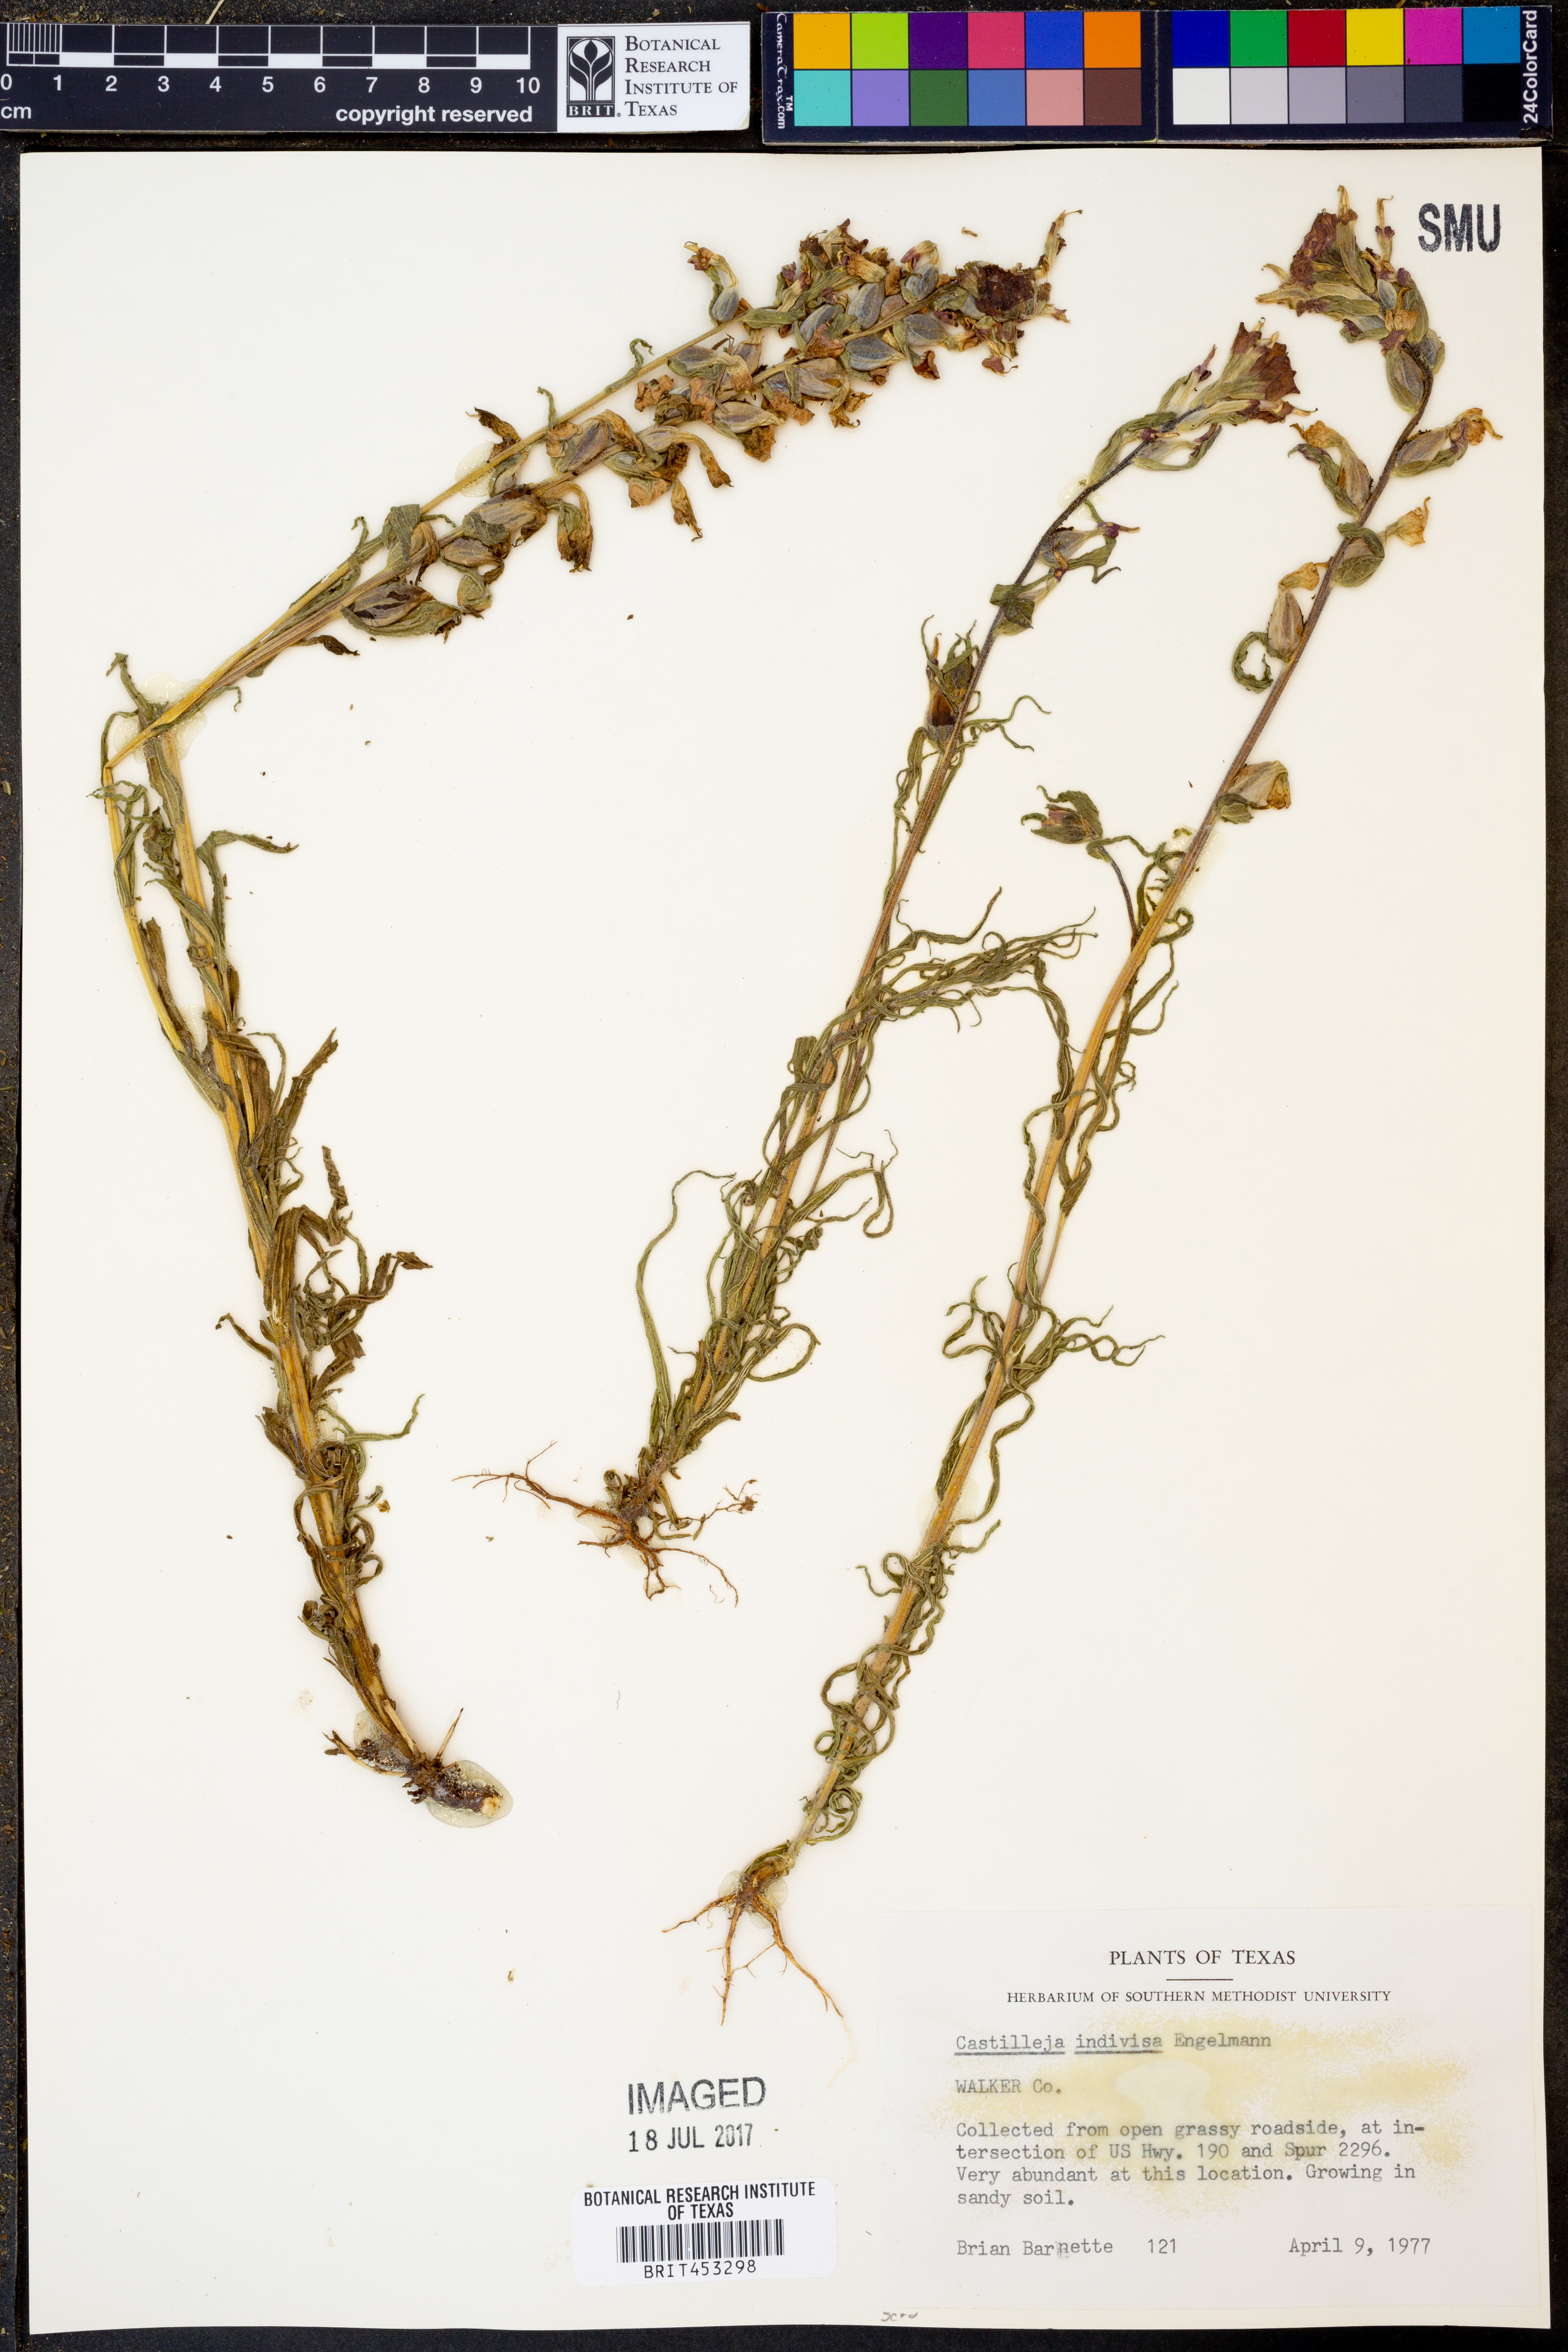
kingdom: Plantae
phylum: Tracheophyta
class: Magnoliopsida
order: Lamiales
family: Orobanchaceae
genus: Castilleja
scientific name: Castilleja indivisa
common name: Texas paintbrush
